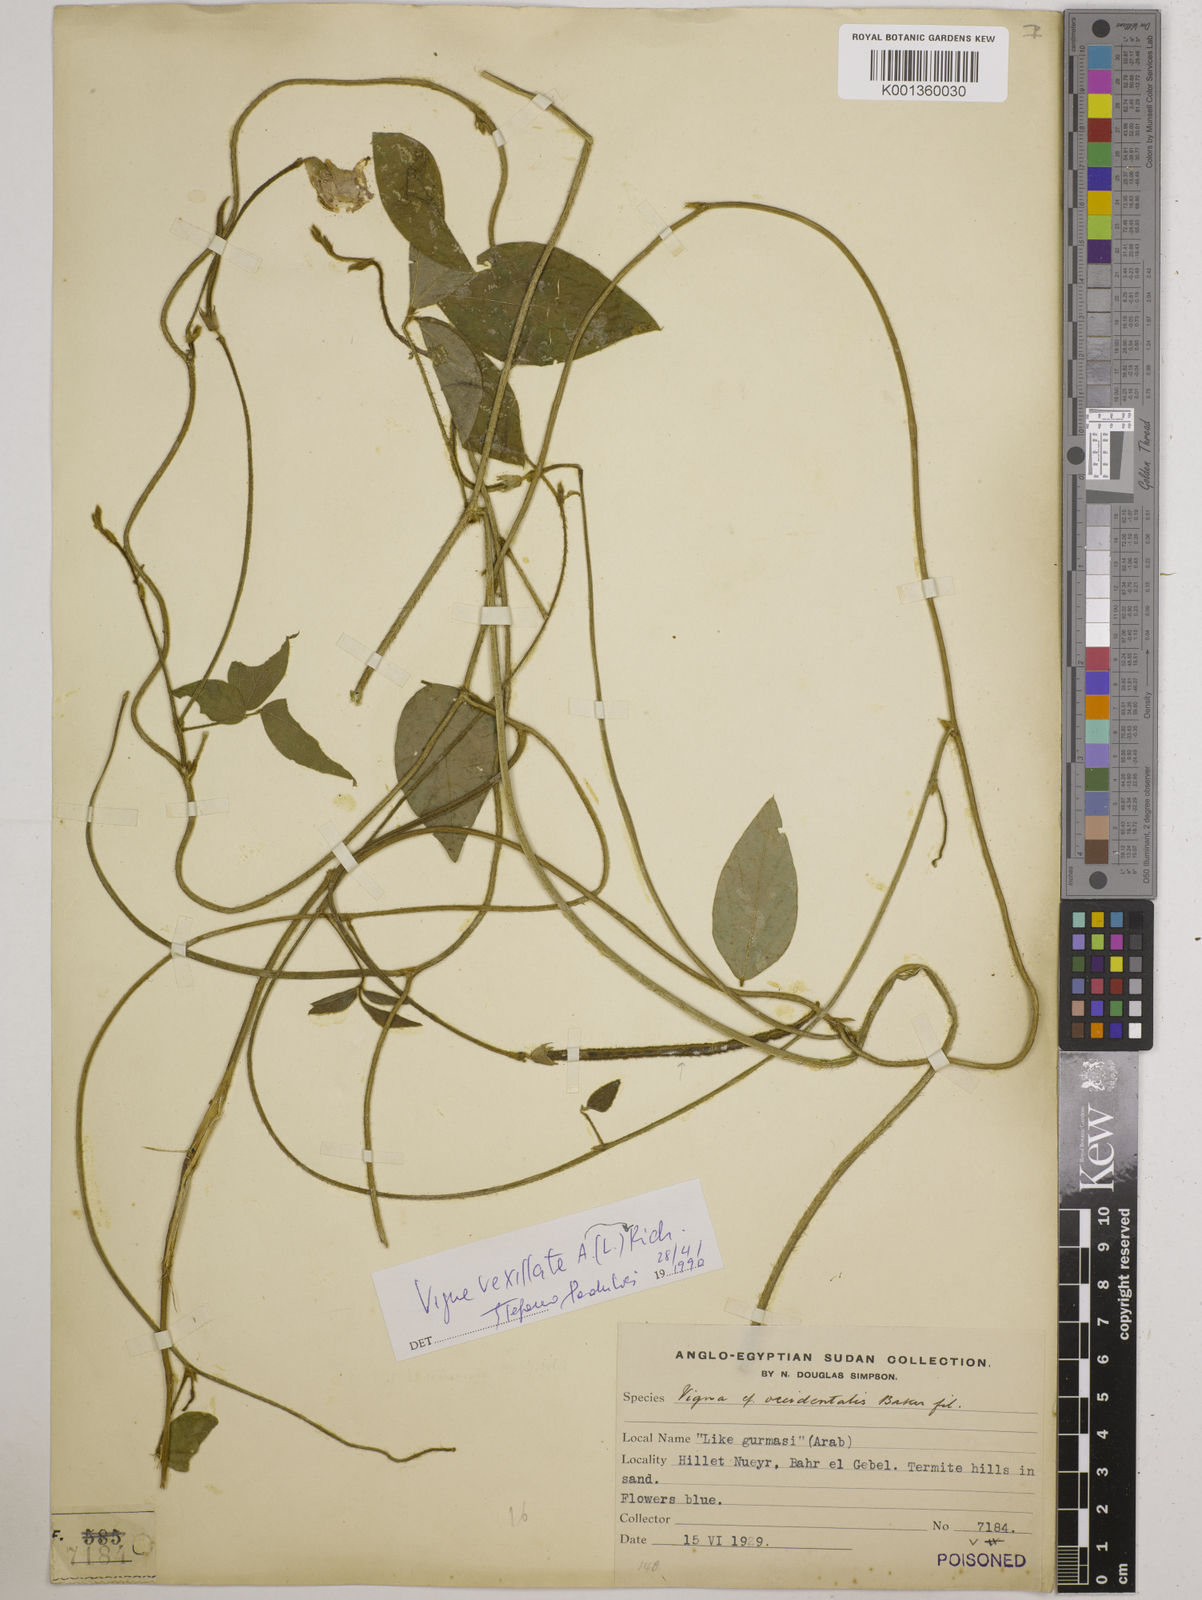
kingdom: Plantae
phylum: Tracheophyta
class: Magnoliopsida
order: Fabales
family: Fabaceae
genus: Vigna
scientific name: Vigna vexillata
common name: Zombi pea
